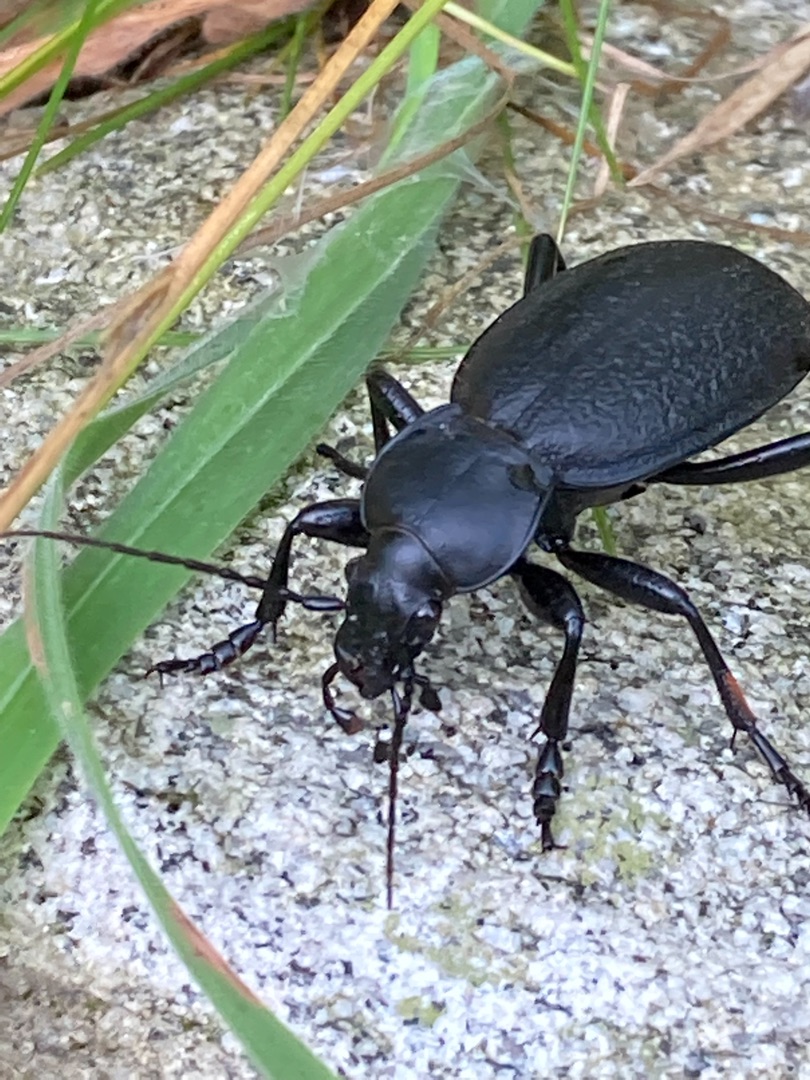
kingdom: Animalia
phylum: Arthropoda
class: Insecta
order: Coleoptera
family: Carabidae
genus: Carabus
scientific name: Carabus coriaceus
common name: Læderløber
